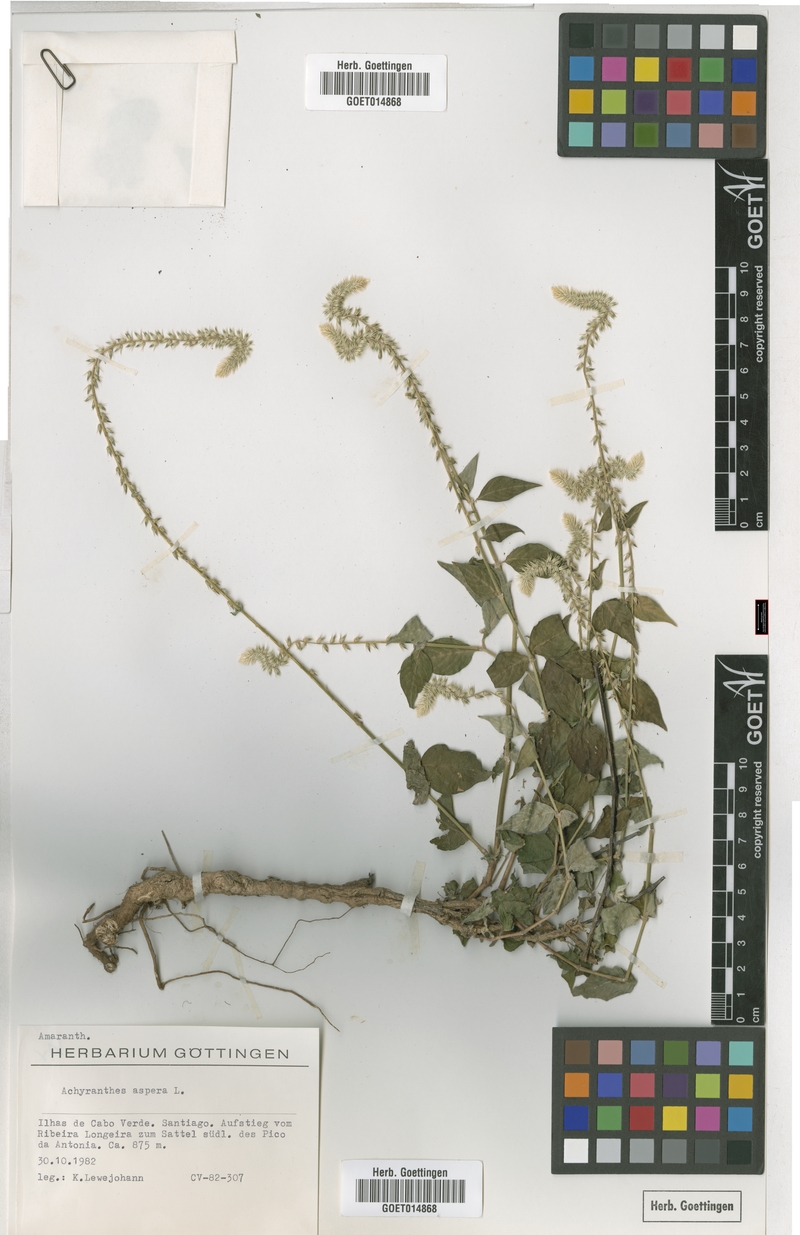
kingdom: Plantae
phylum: Tracheophyta
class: Magnoliopsida
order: Caryophyllales
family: Amaranthaceae
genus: Achyranthes
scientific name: Achyranthes aspera
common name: Devil's horsewhip
